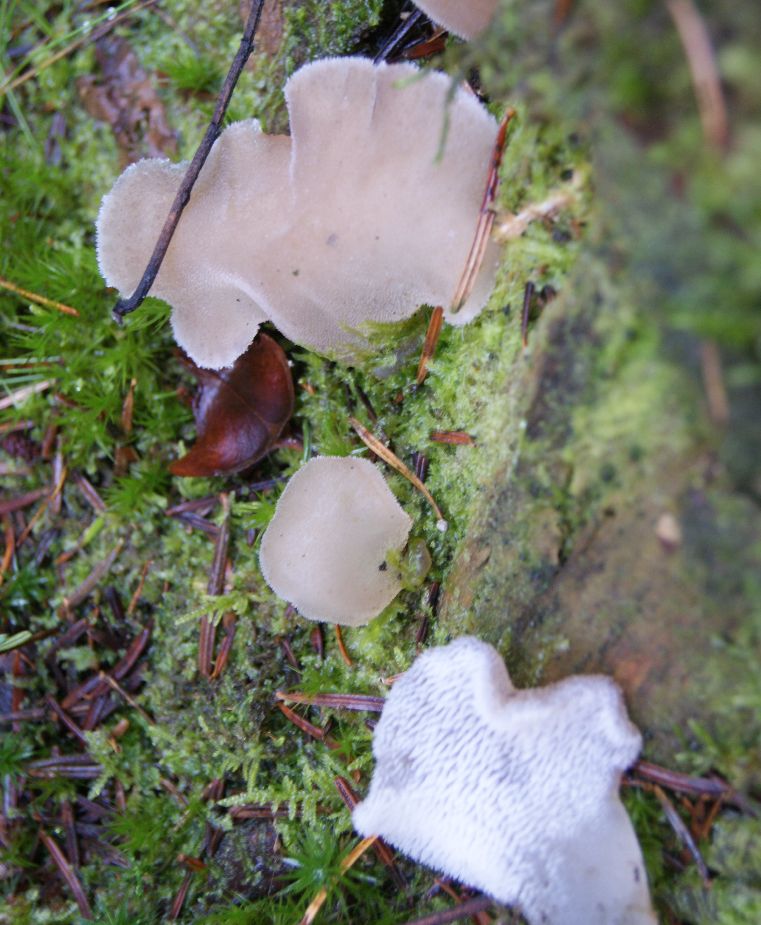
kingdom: Fungi
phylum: Basidiomycota
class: Agaricomycetes
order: Auriculariales
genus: Pseudohydnum
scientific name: Pseudohydnum gelatinosum
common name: bævretand
